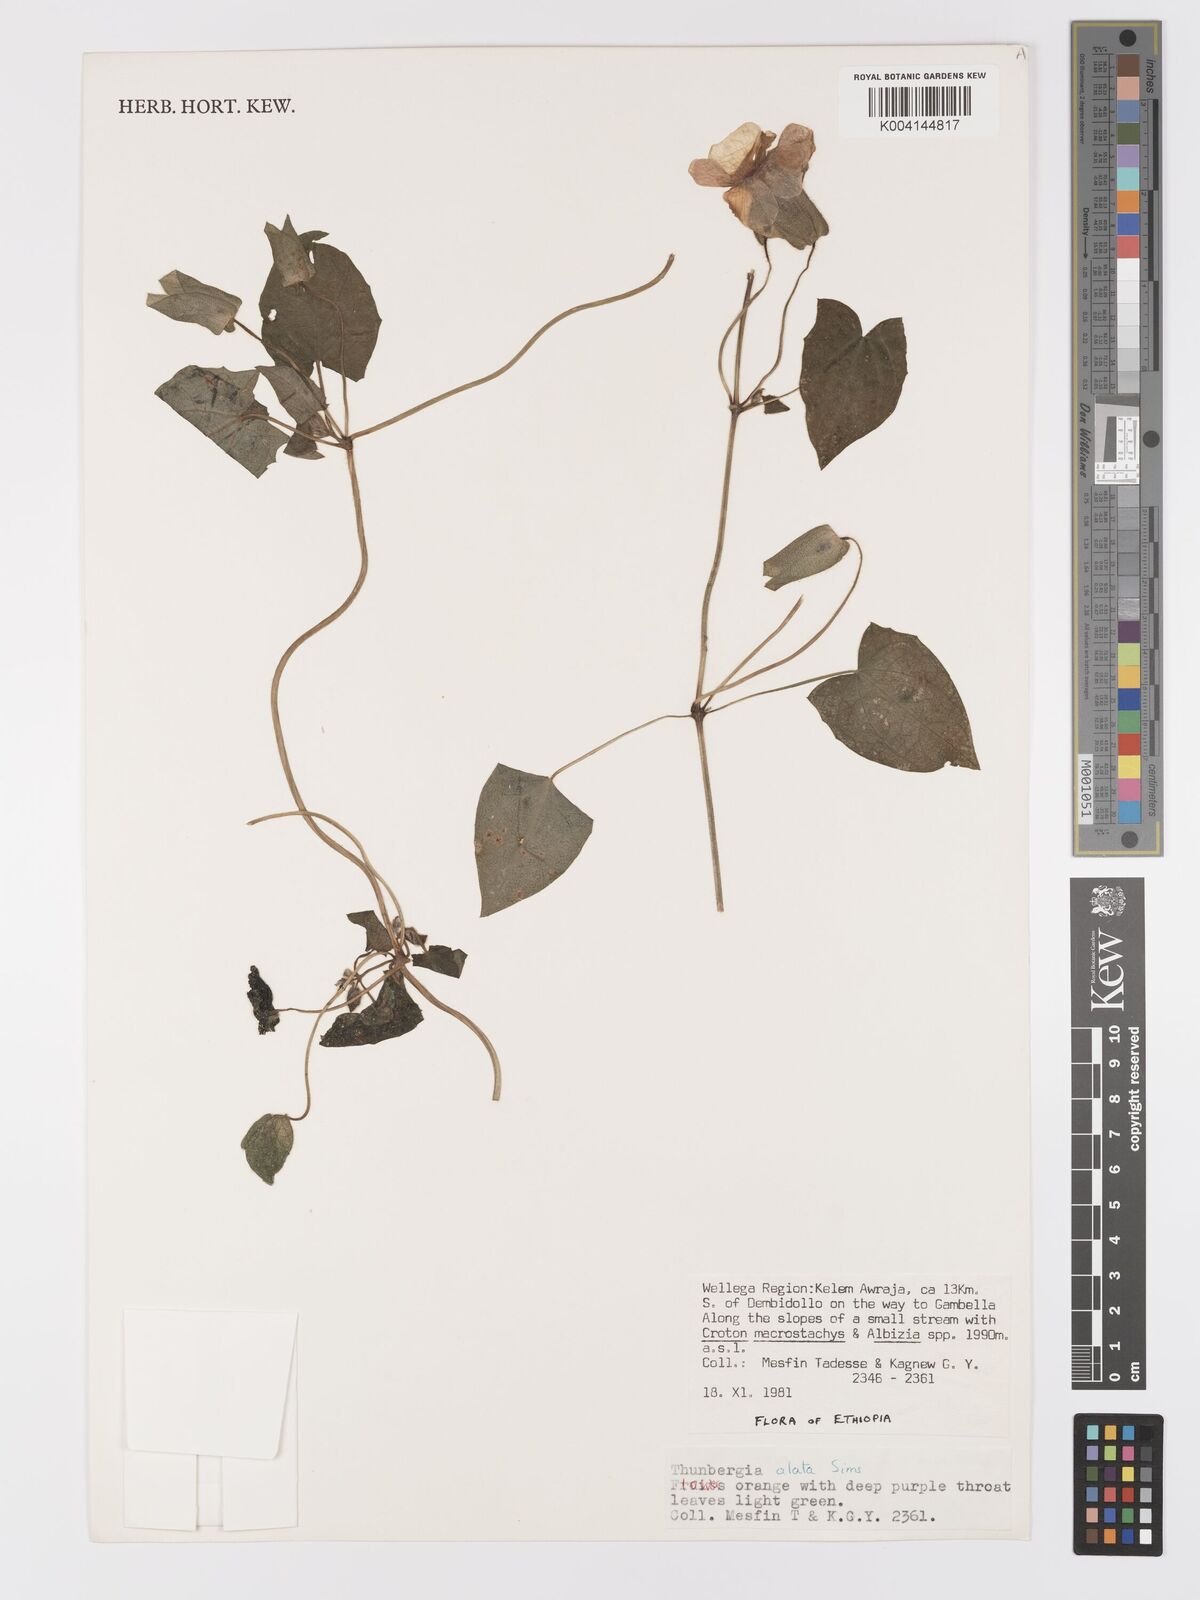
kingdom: Plantae
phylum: Tracheophyta
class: Magnoliopsida
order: Lamiales
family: Acanthaceae
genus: Thunbergia
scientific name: Thunbergia alata
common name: Blackeyed susan vine
